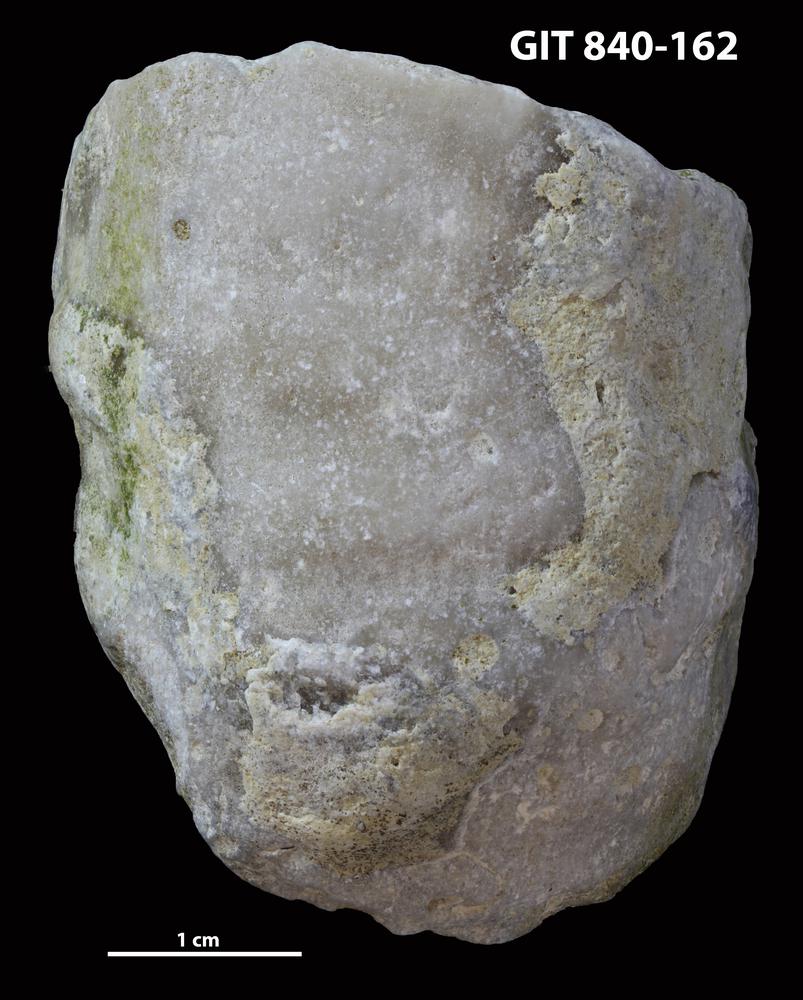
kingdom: Animalia
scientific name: Animalia
